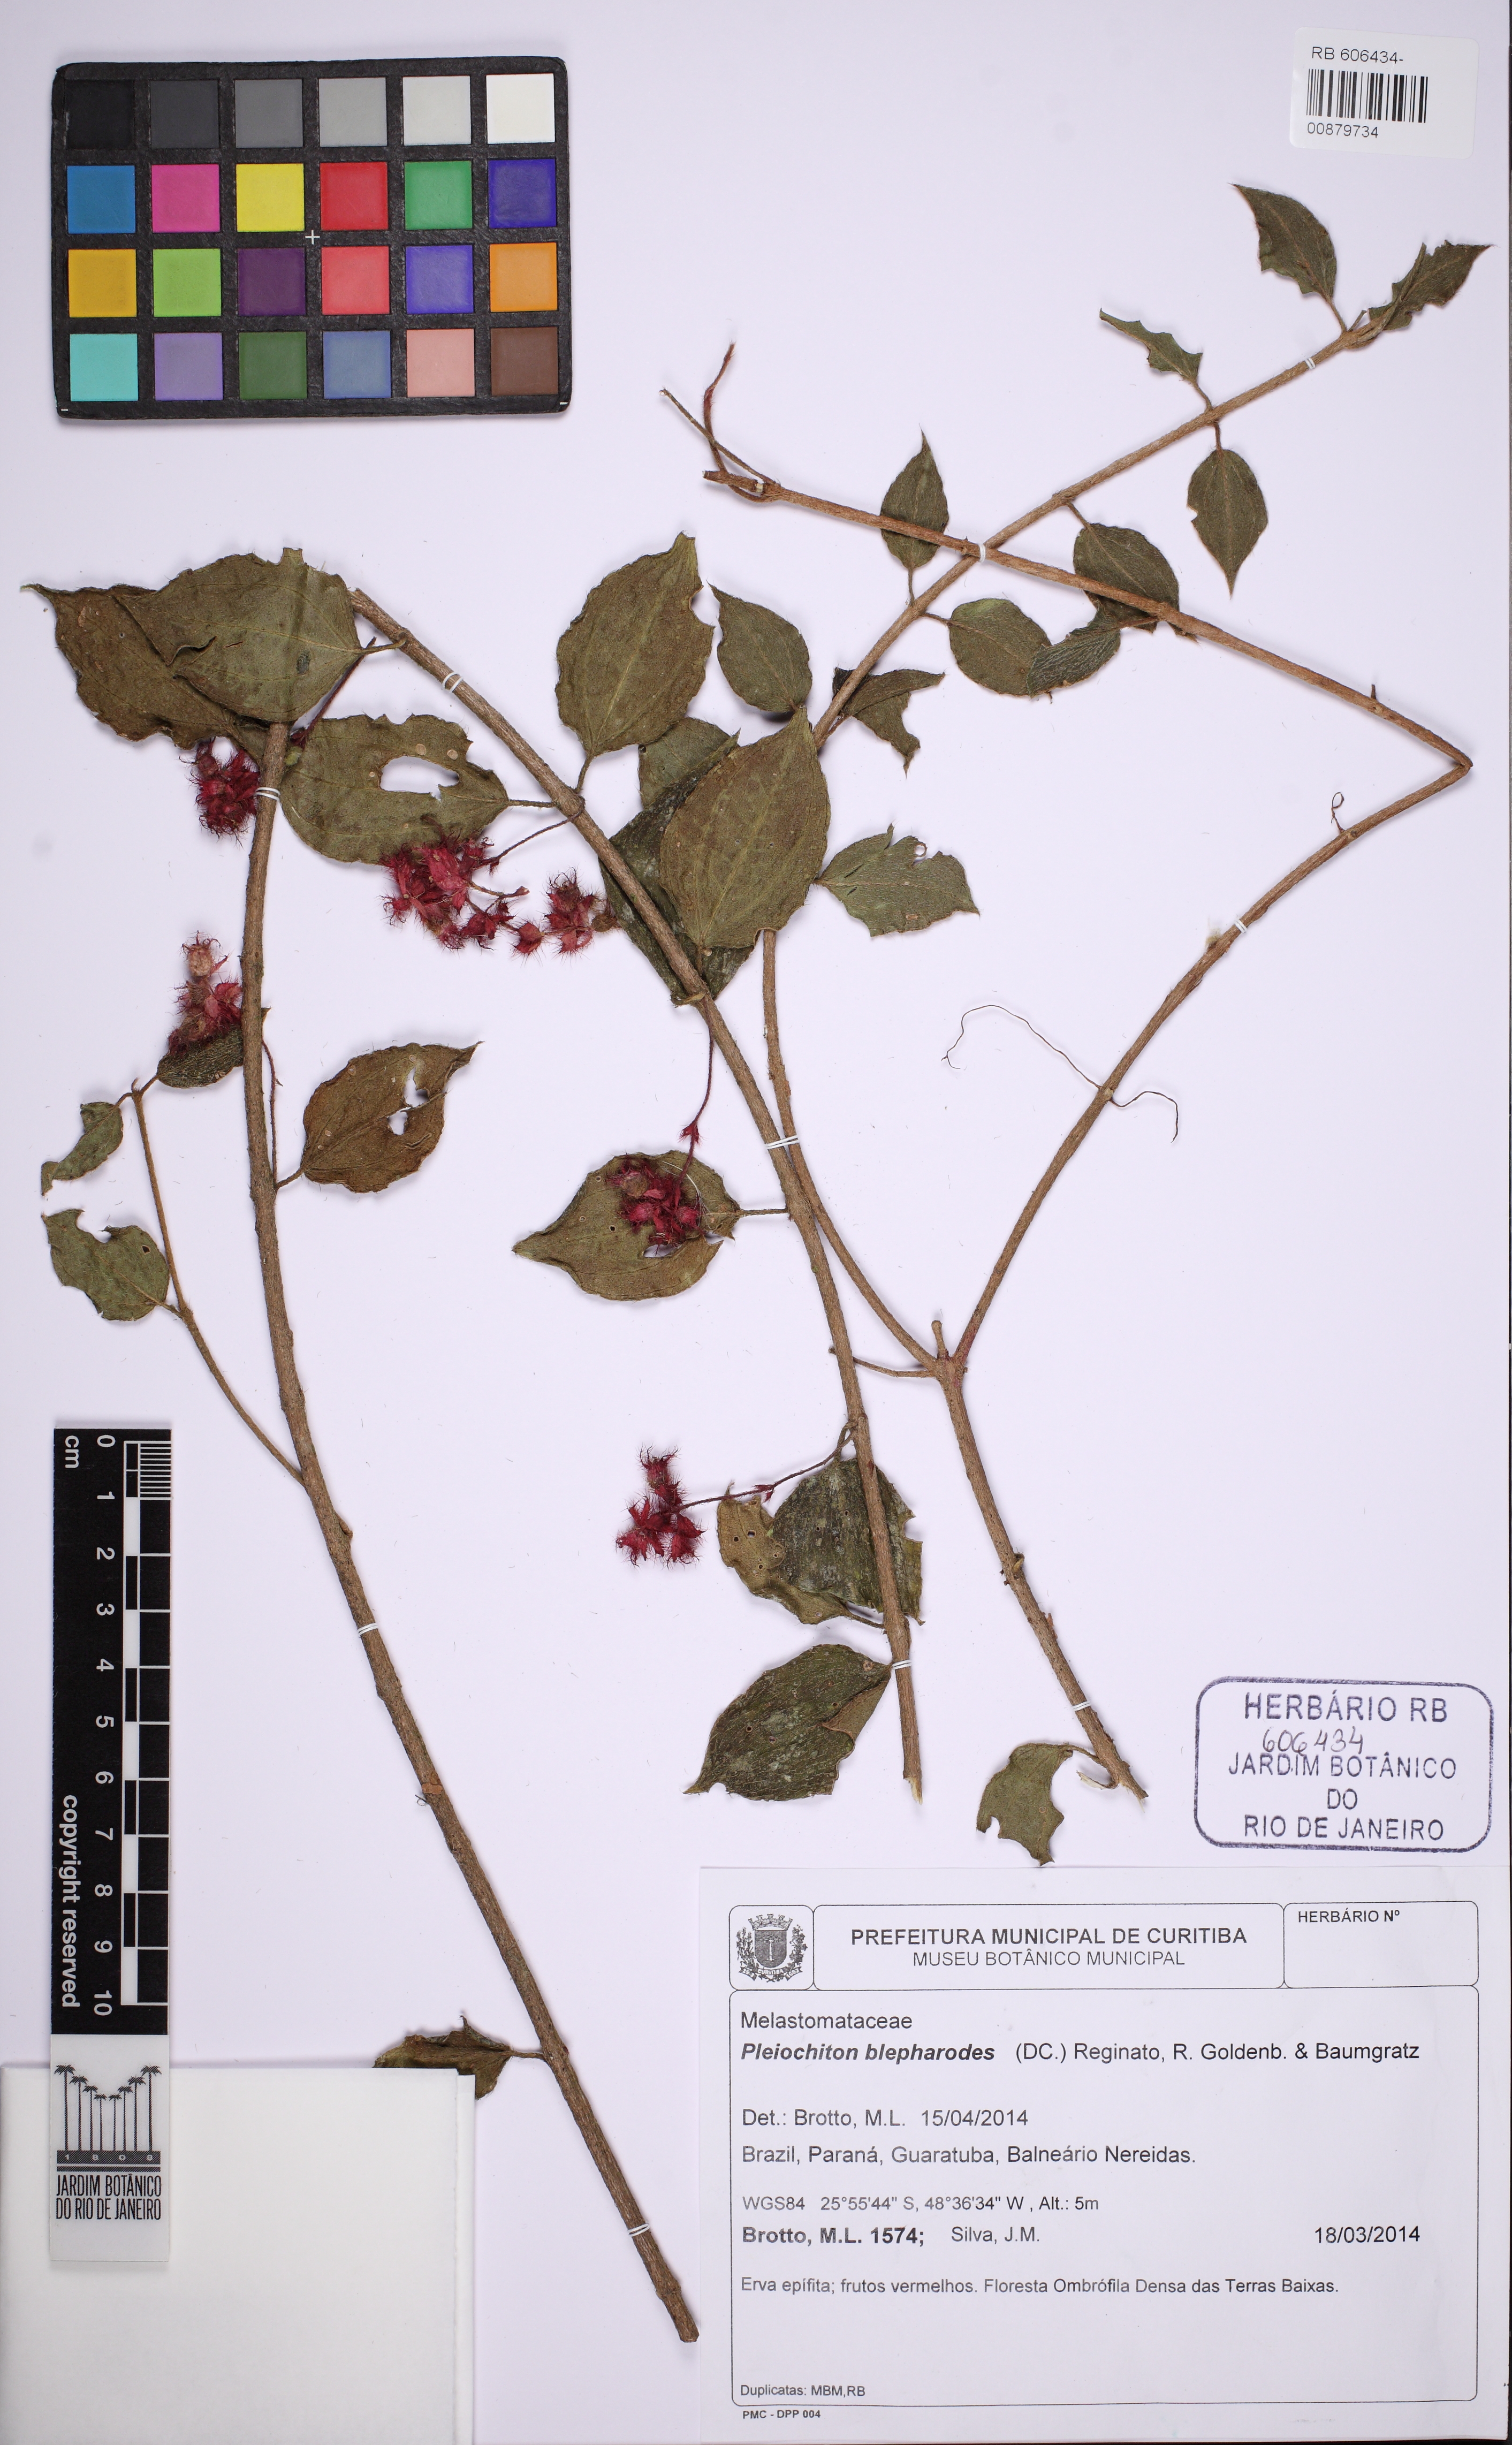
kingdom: Plantae
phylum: Tracheophyta
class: Magnoliopsida
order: Myrtales
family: Melastomataceae
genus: Miconia
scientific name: Miconia blepharodes
